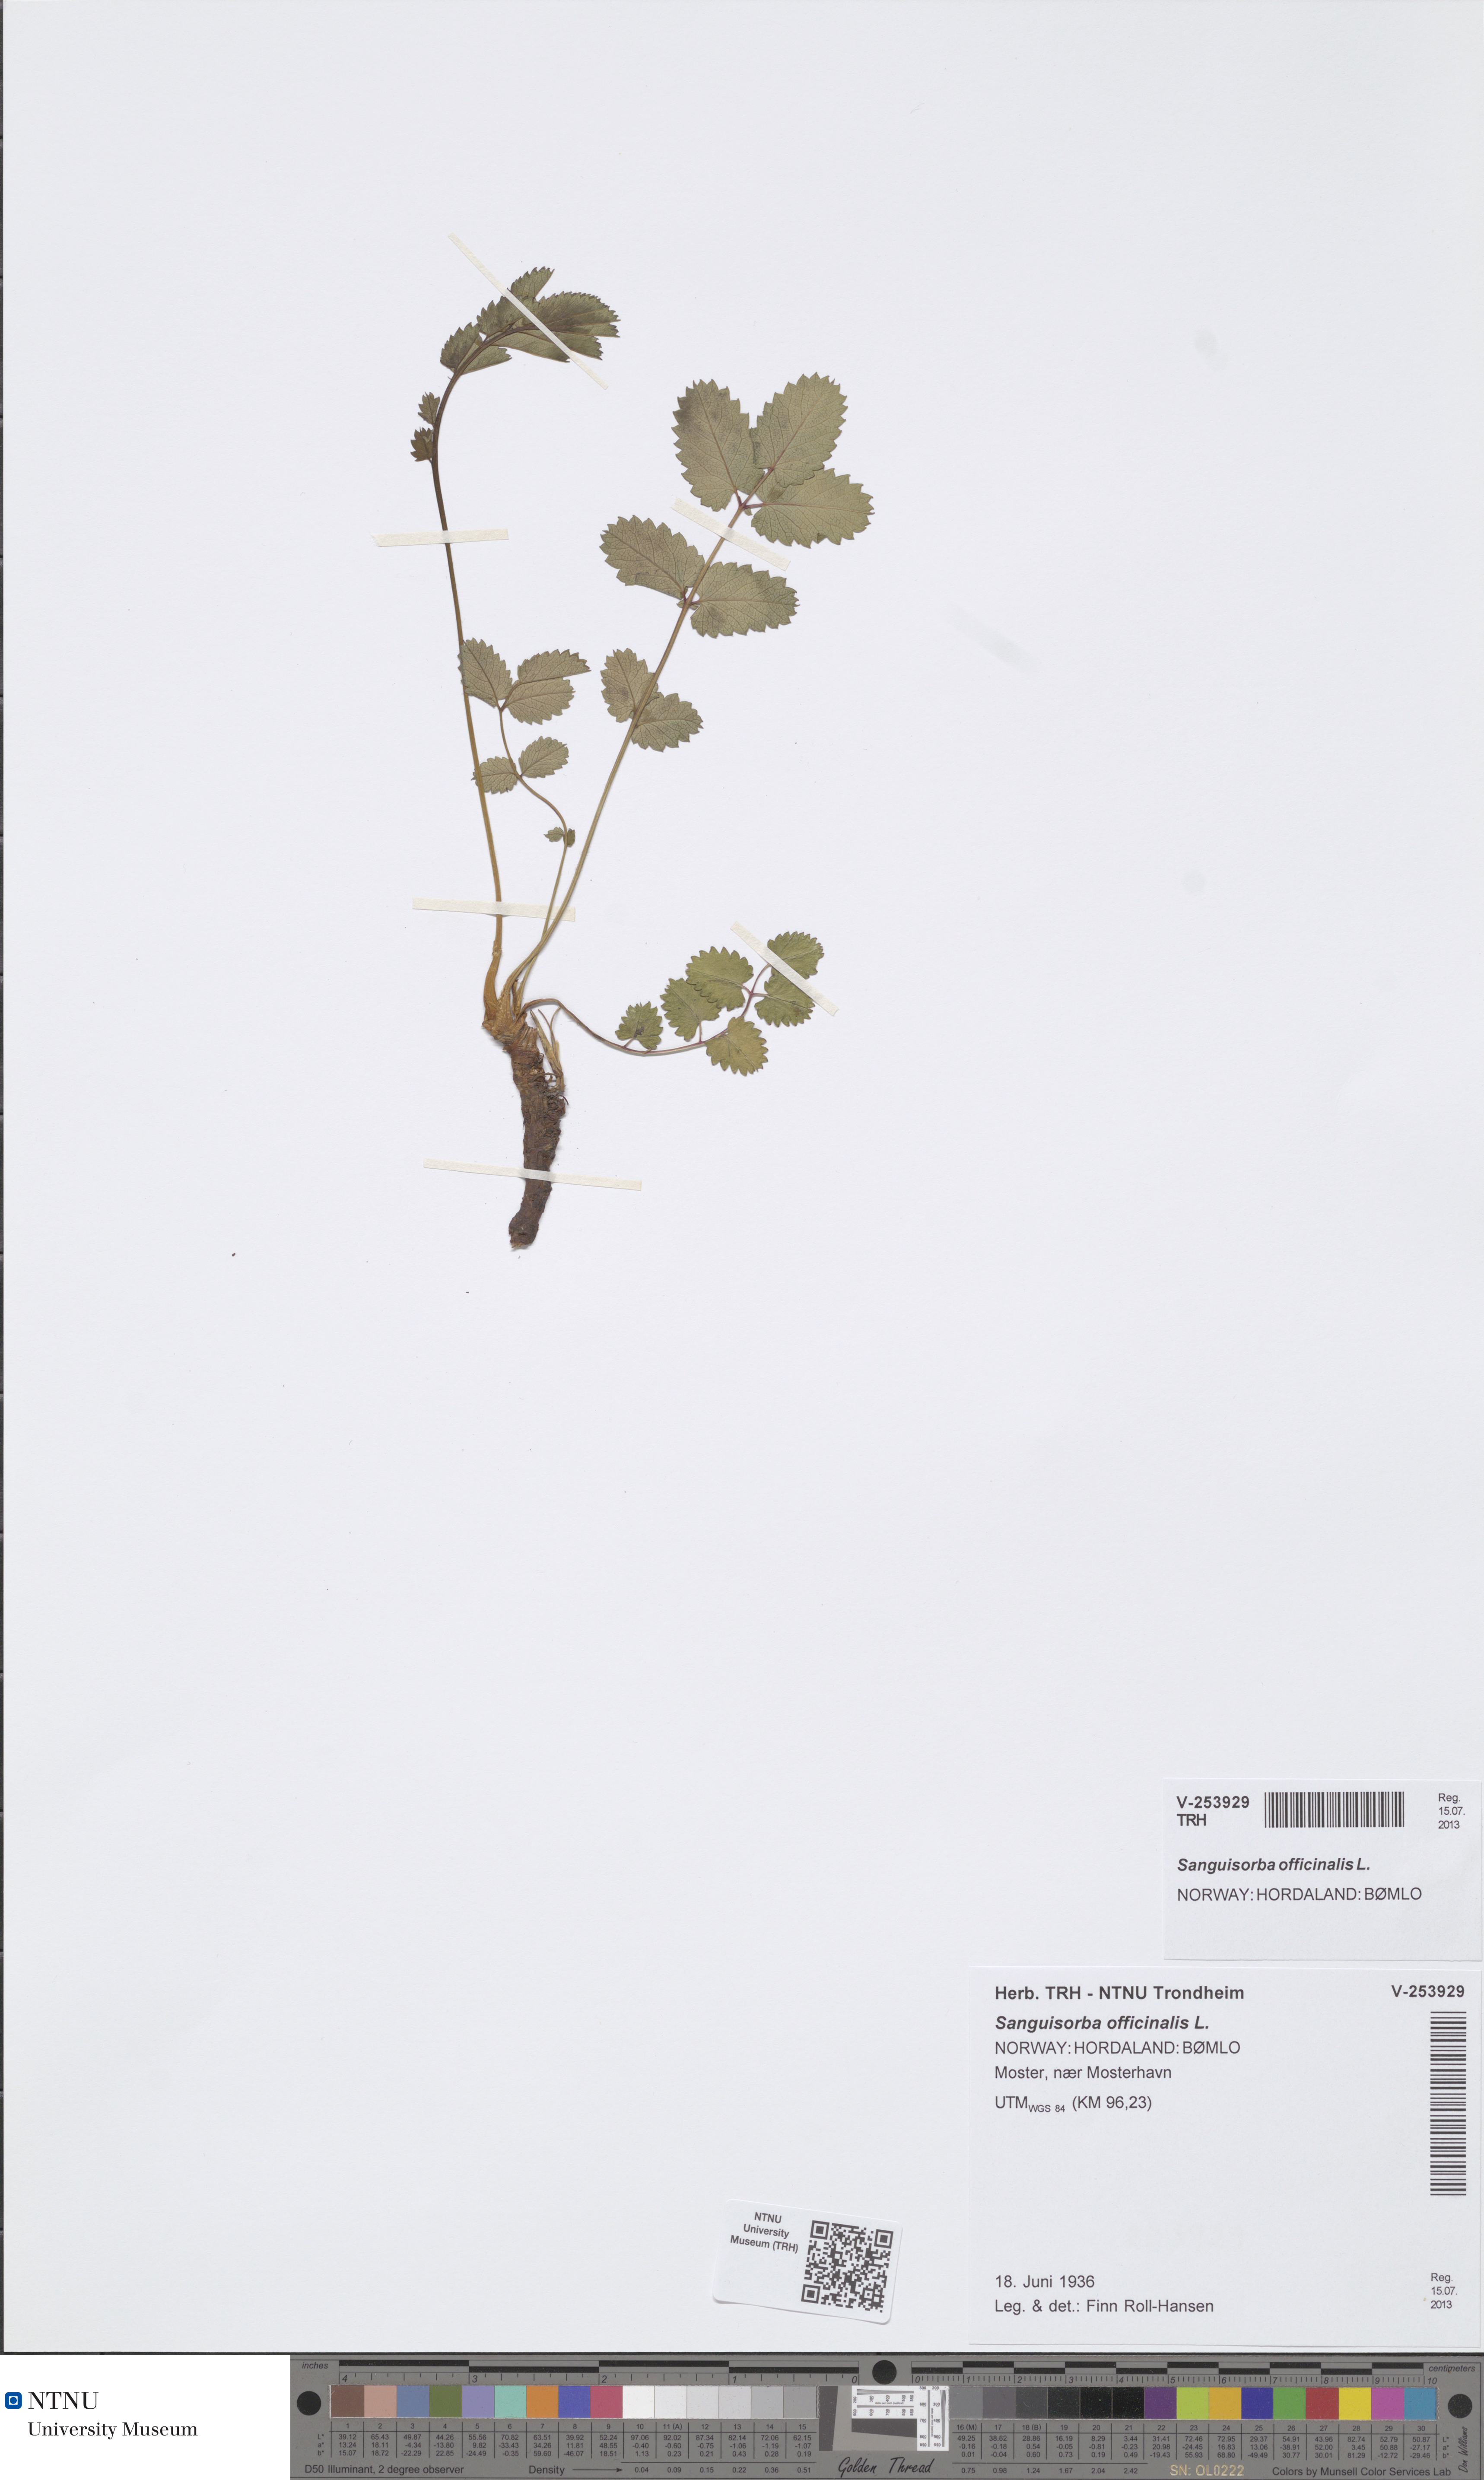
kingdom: Plantae
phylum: Tracheophyta
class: Magnoliopsida
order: Rosales
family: Rosaceae
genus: Sanguisorba
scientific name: Sanguisorba officinalis
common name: Great burnet
